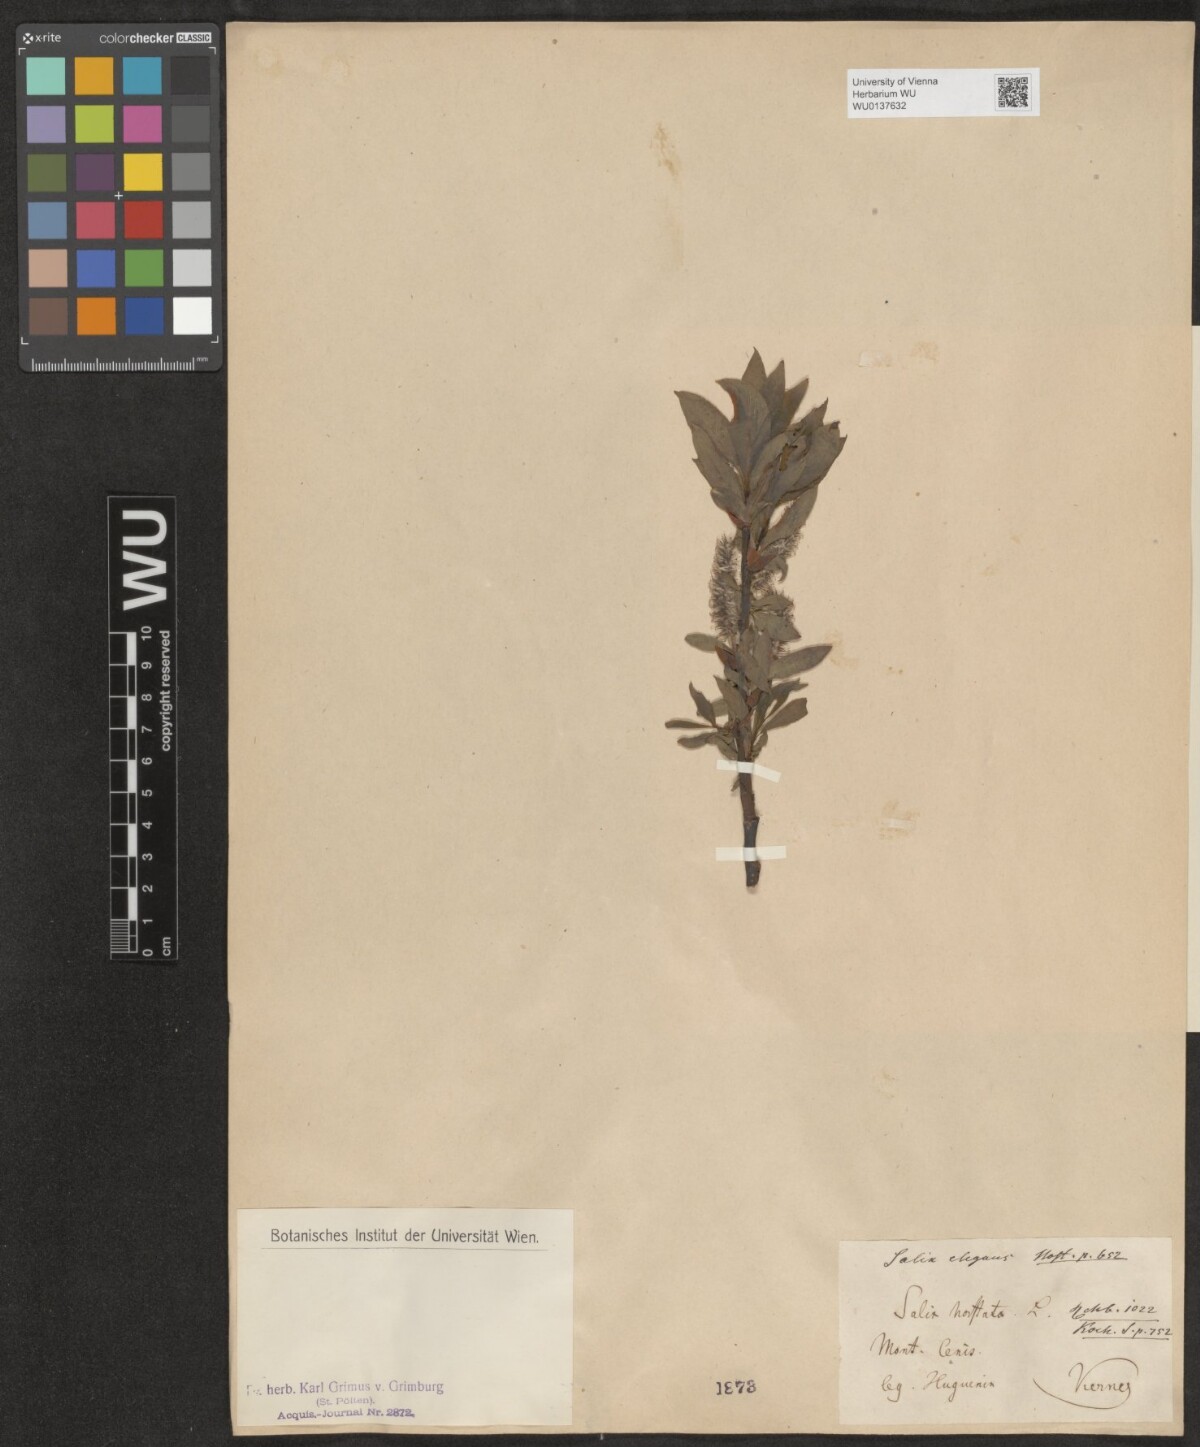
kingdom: Plantae
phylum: Tracheophyta
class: Magnoliopsida
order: Malpighiales
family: Salicaceae
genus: Salix
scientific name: Salix hastata
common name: Halberd willow
